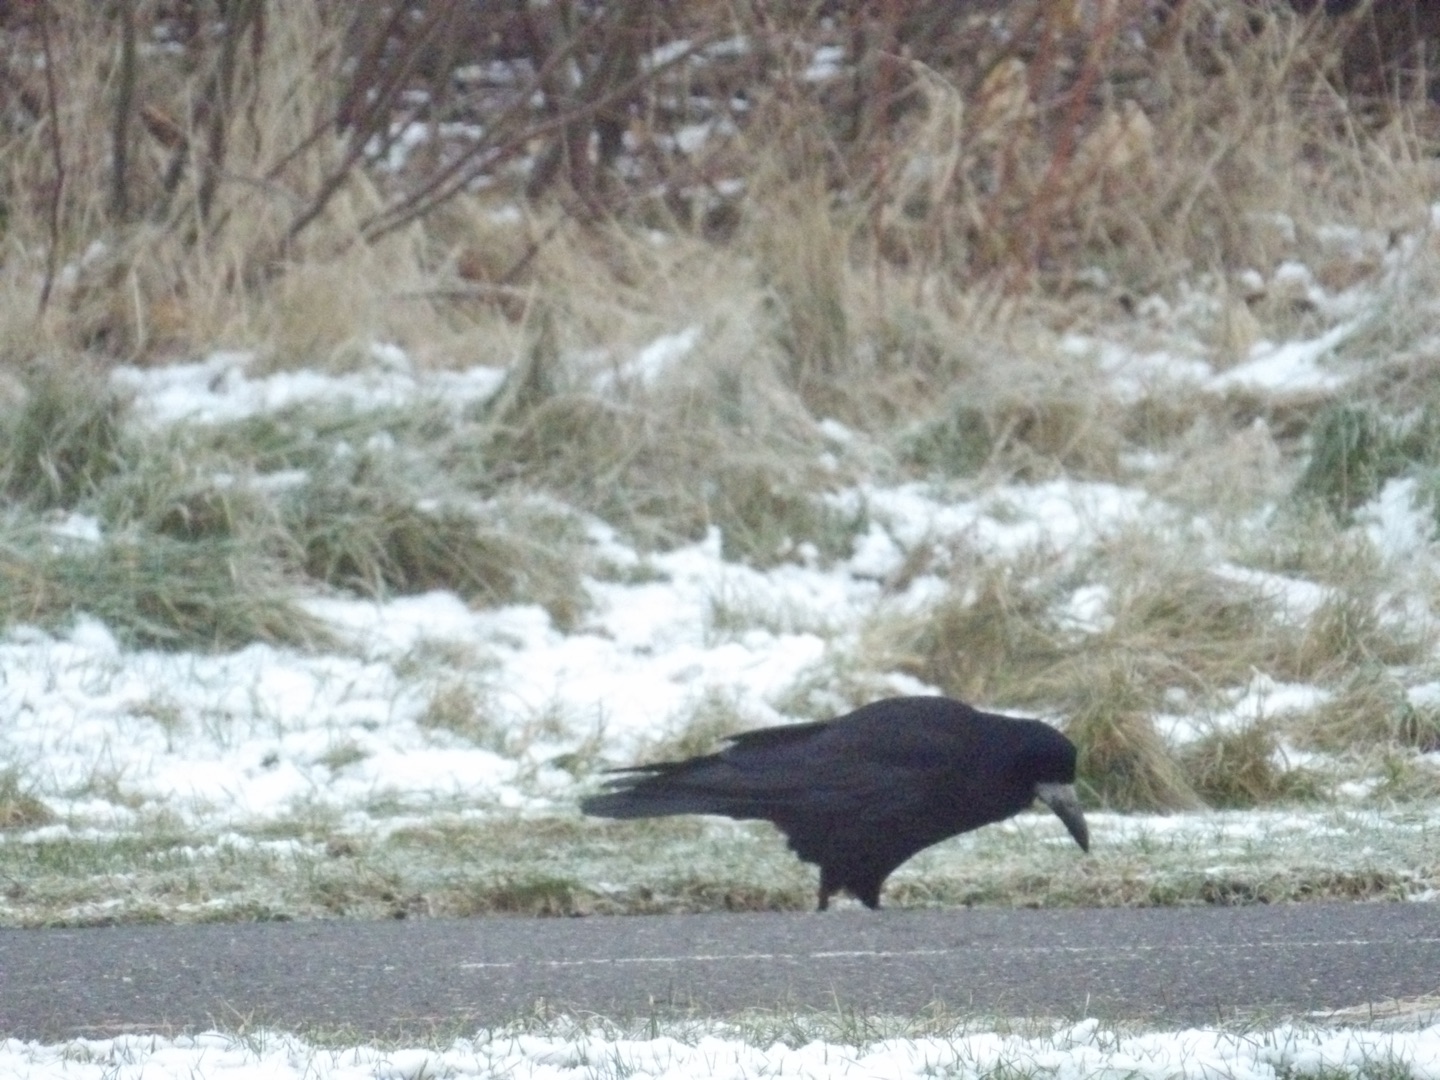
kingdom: Animalia
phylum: Chordata
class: Aves
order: Passeriformes
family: Corvidae
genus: Corvus
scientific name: Corvus frugilegus
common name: Råge
